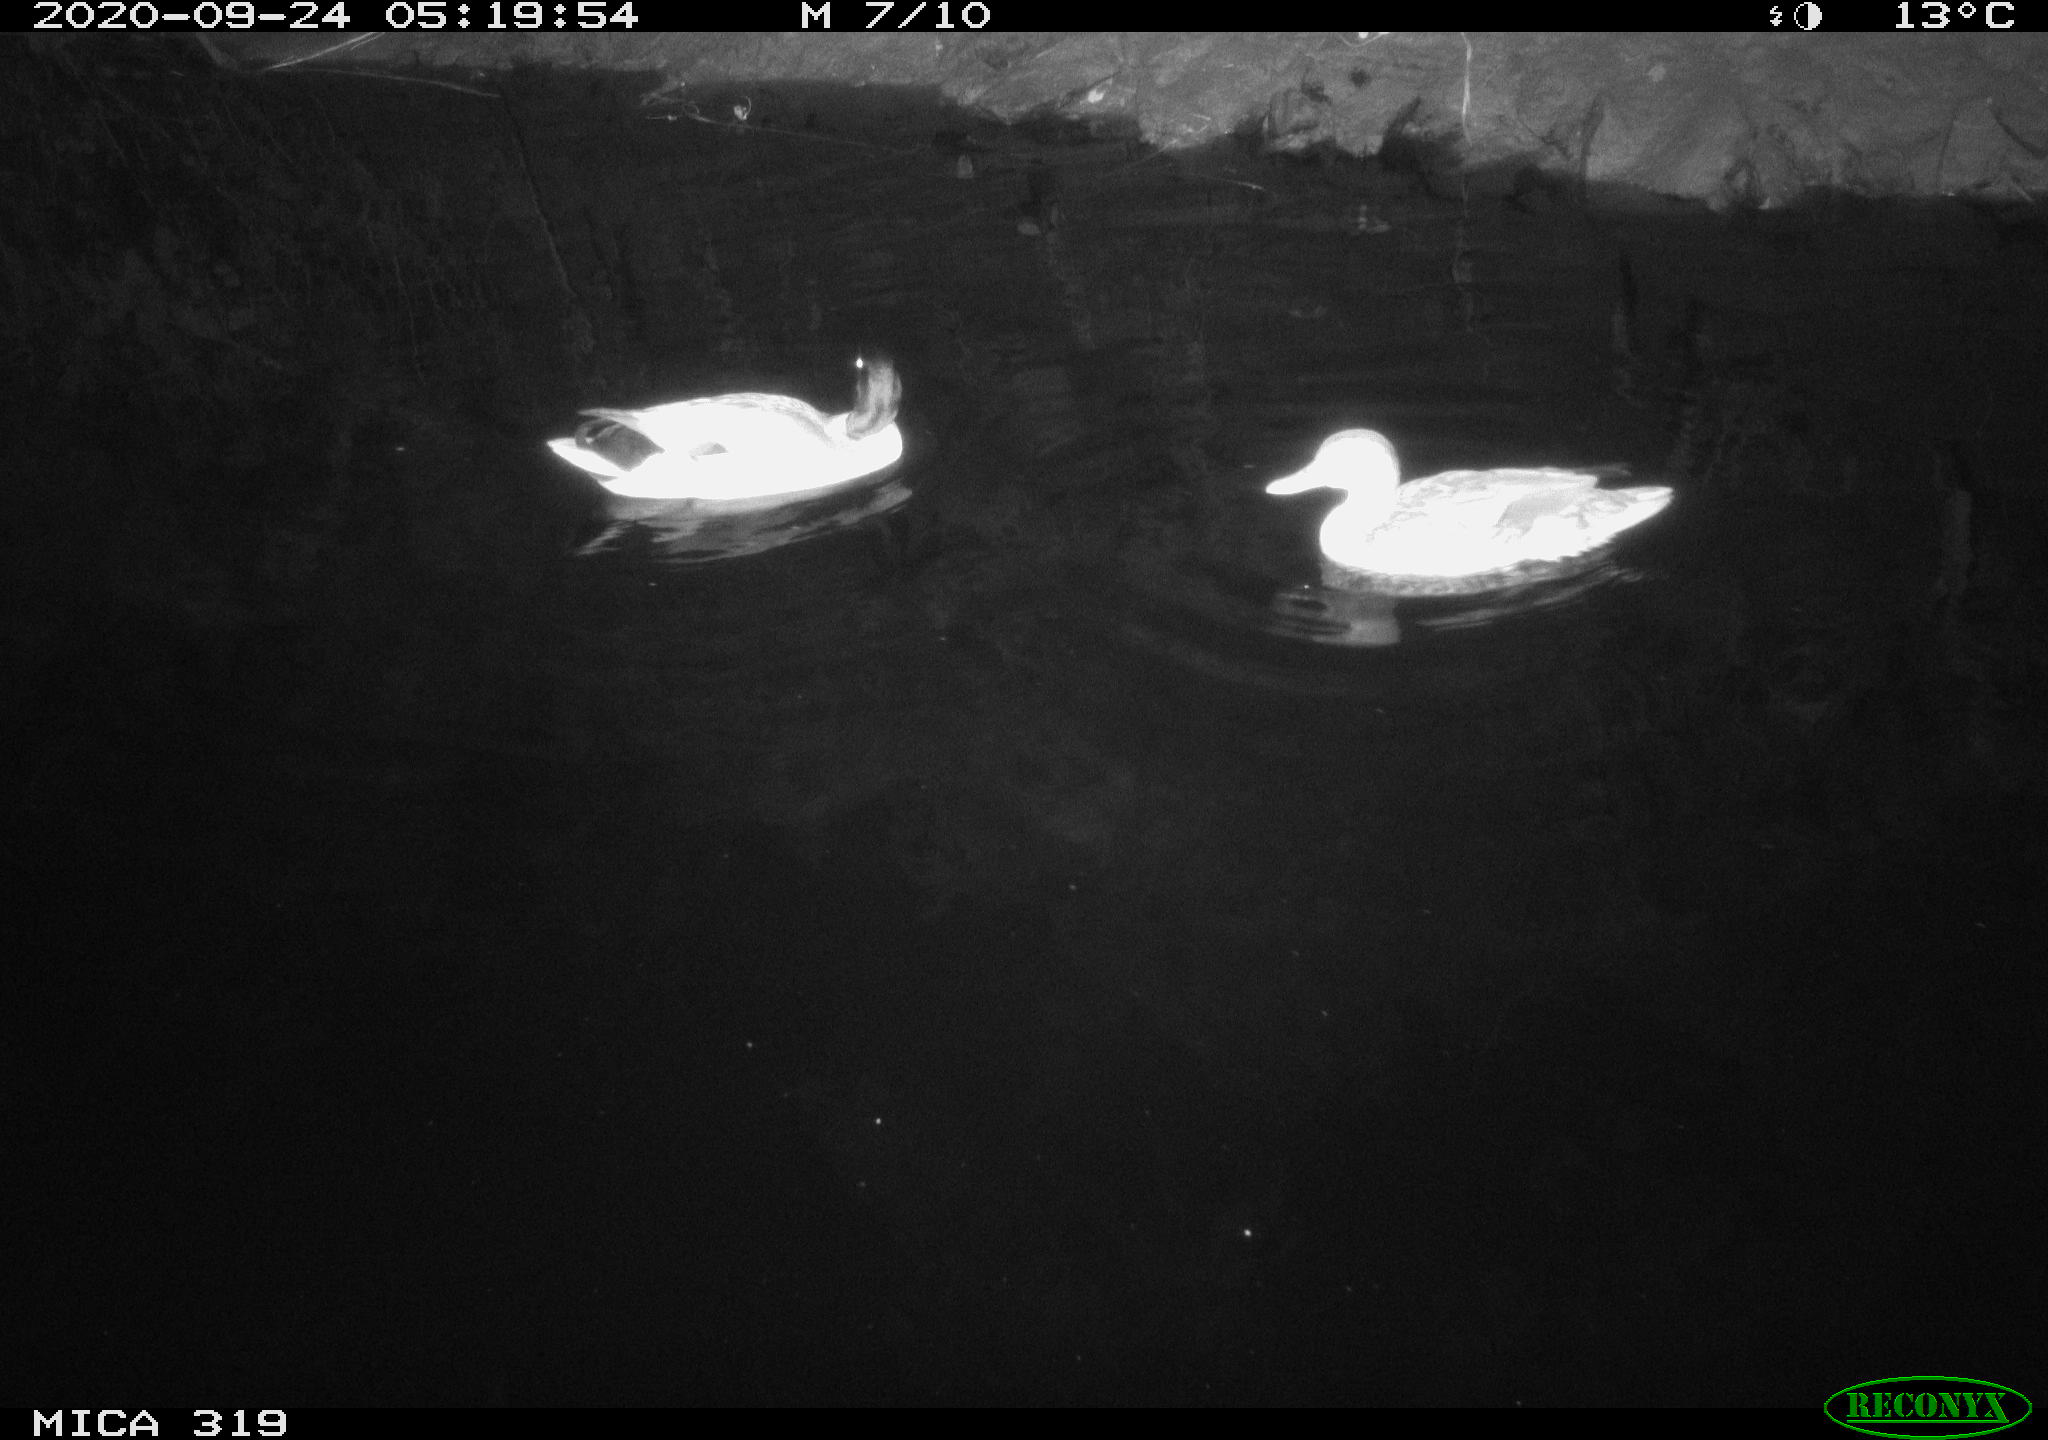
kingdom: Animalia
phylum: Chordata
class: Aves
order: Anseriformes
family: Anatidae
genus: Anas
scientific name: Anas platyrhynchos
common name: Mallard
